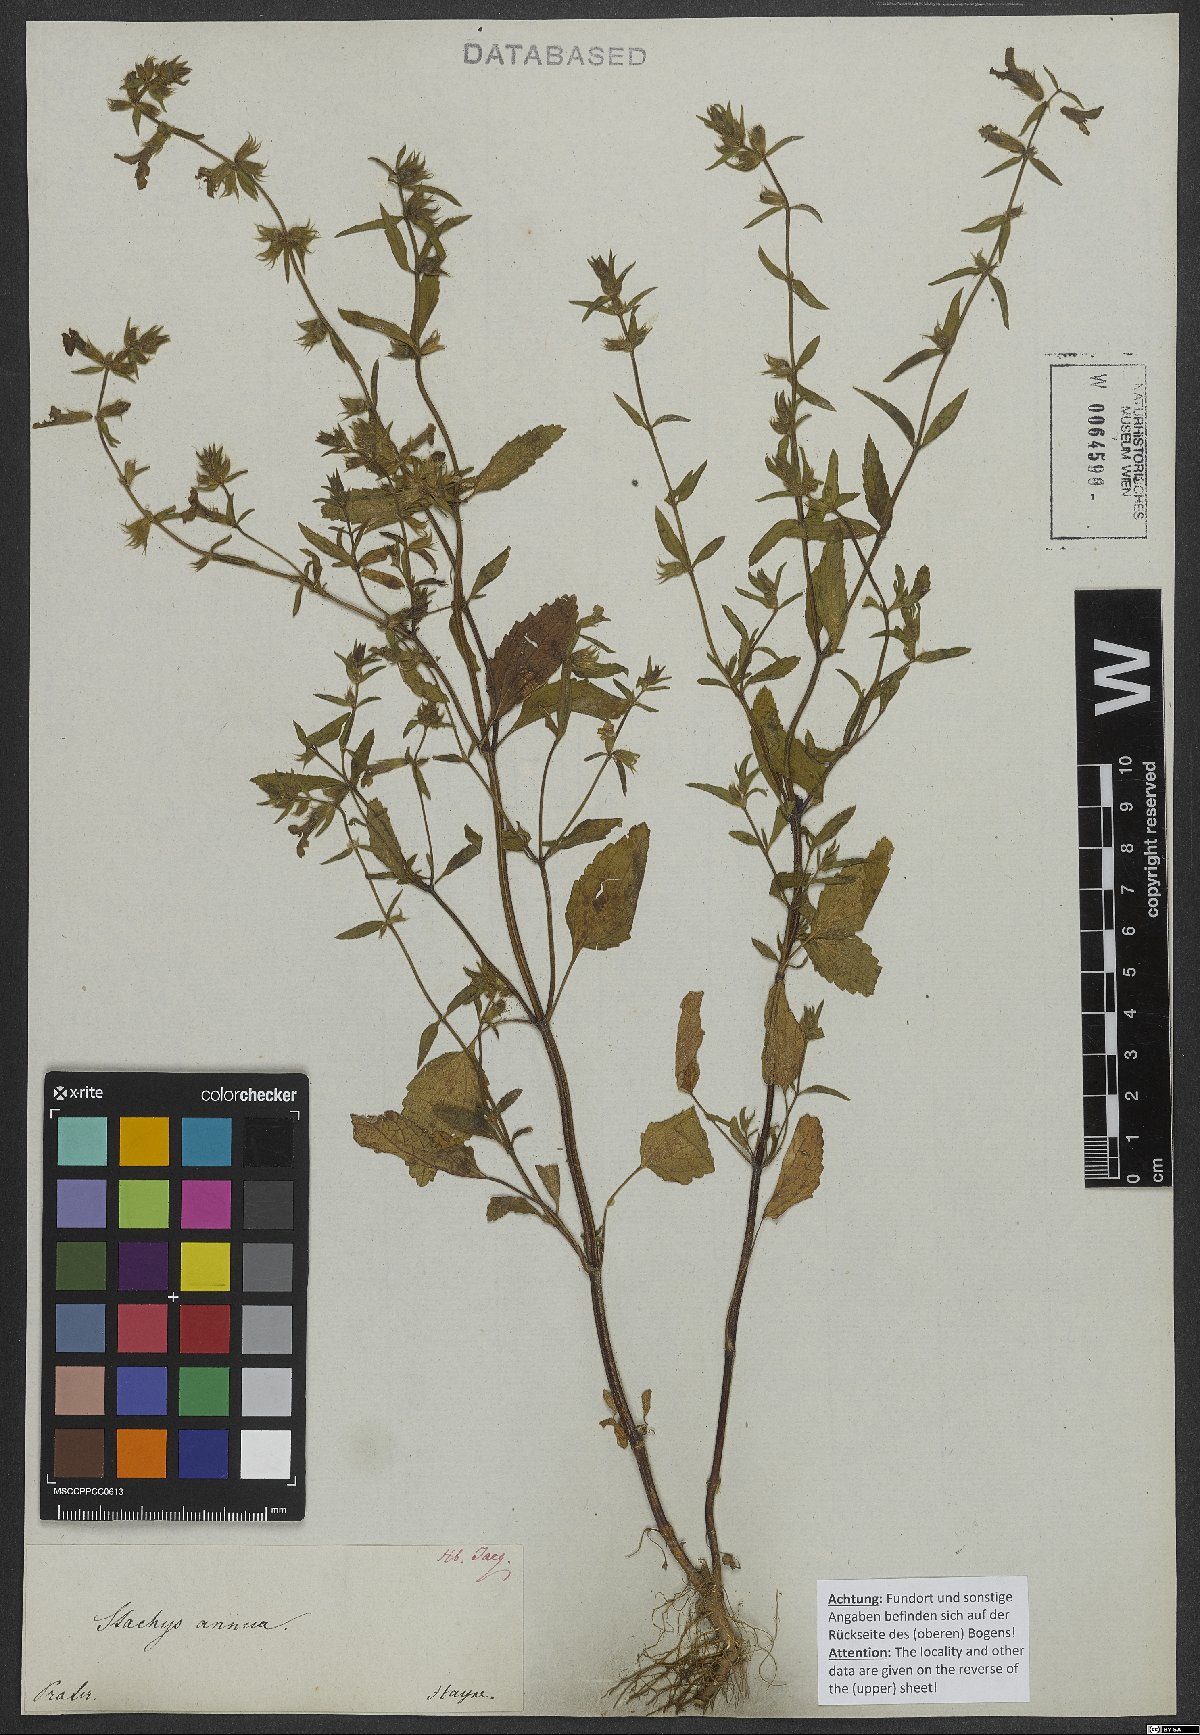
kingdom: Plantae
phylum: Tracheophyta
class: Magnoliopsida
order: Lamiales
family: Lamiaceae
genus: Stachys
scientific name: Stachys annua
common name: Annual yellow-woundwort
